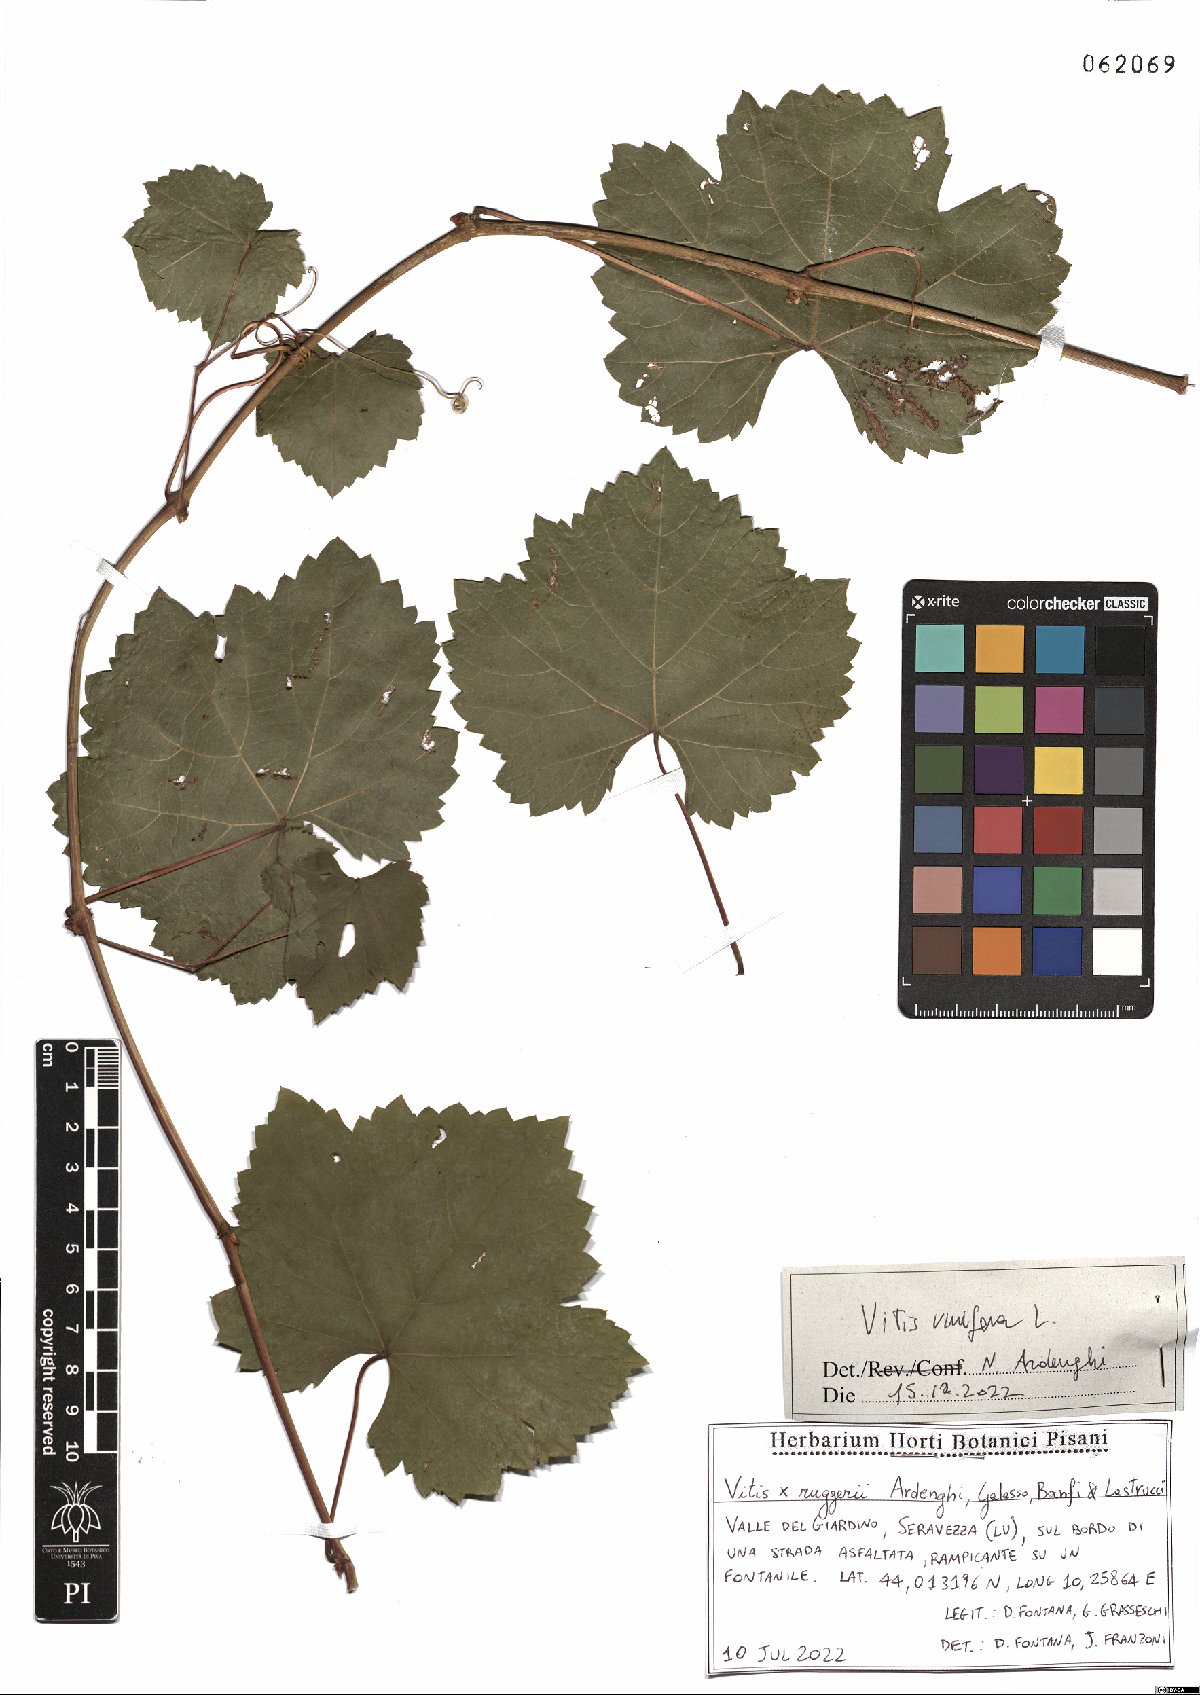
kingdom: Plantae
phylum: Tracheophyta
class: Magnoliopsida
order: Vitales
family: Vitaceae
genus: Vitis
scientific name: Vitis vinifera
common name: Grape-vine
